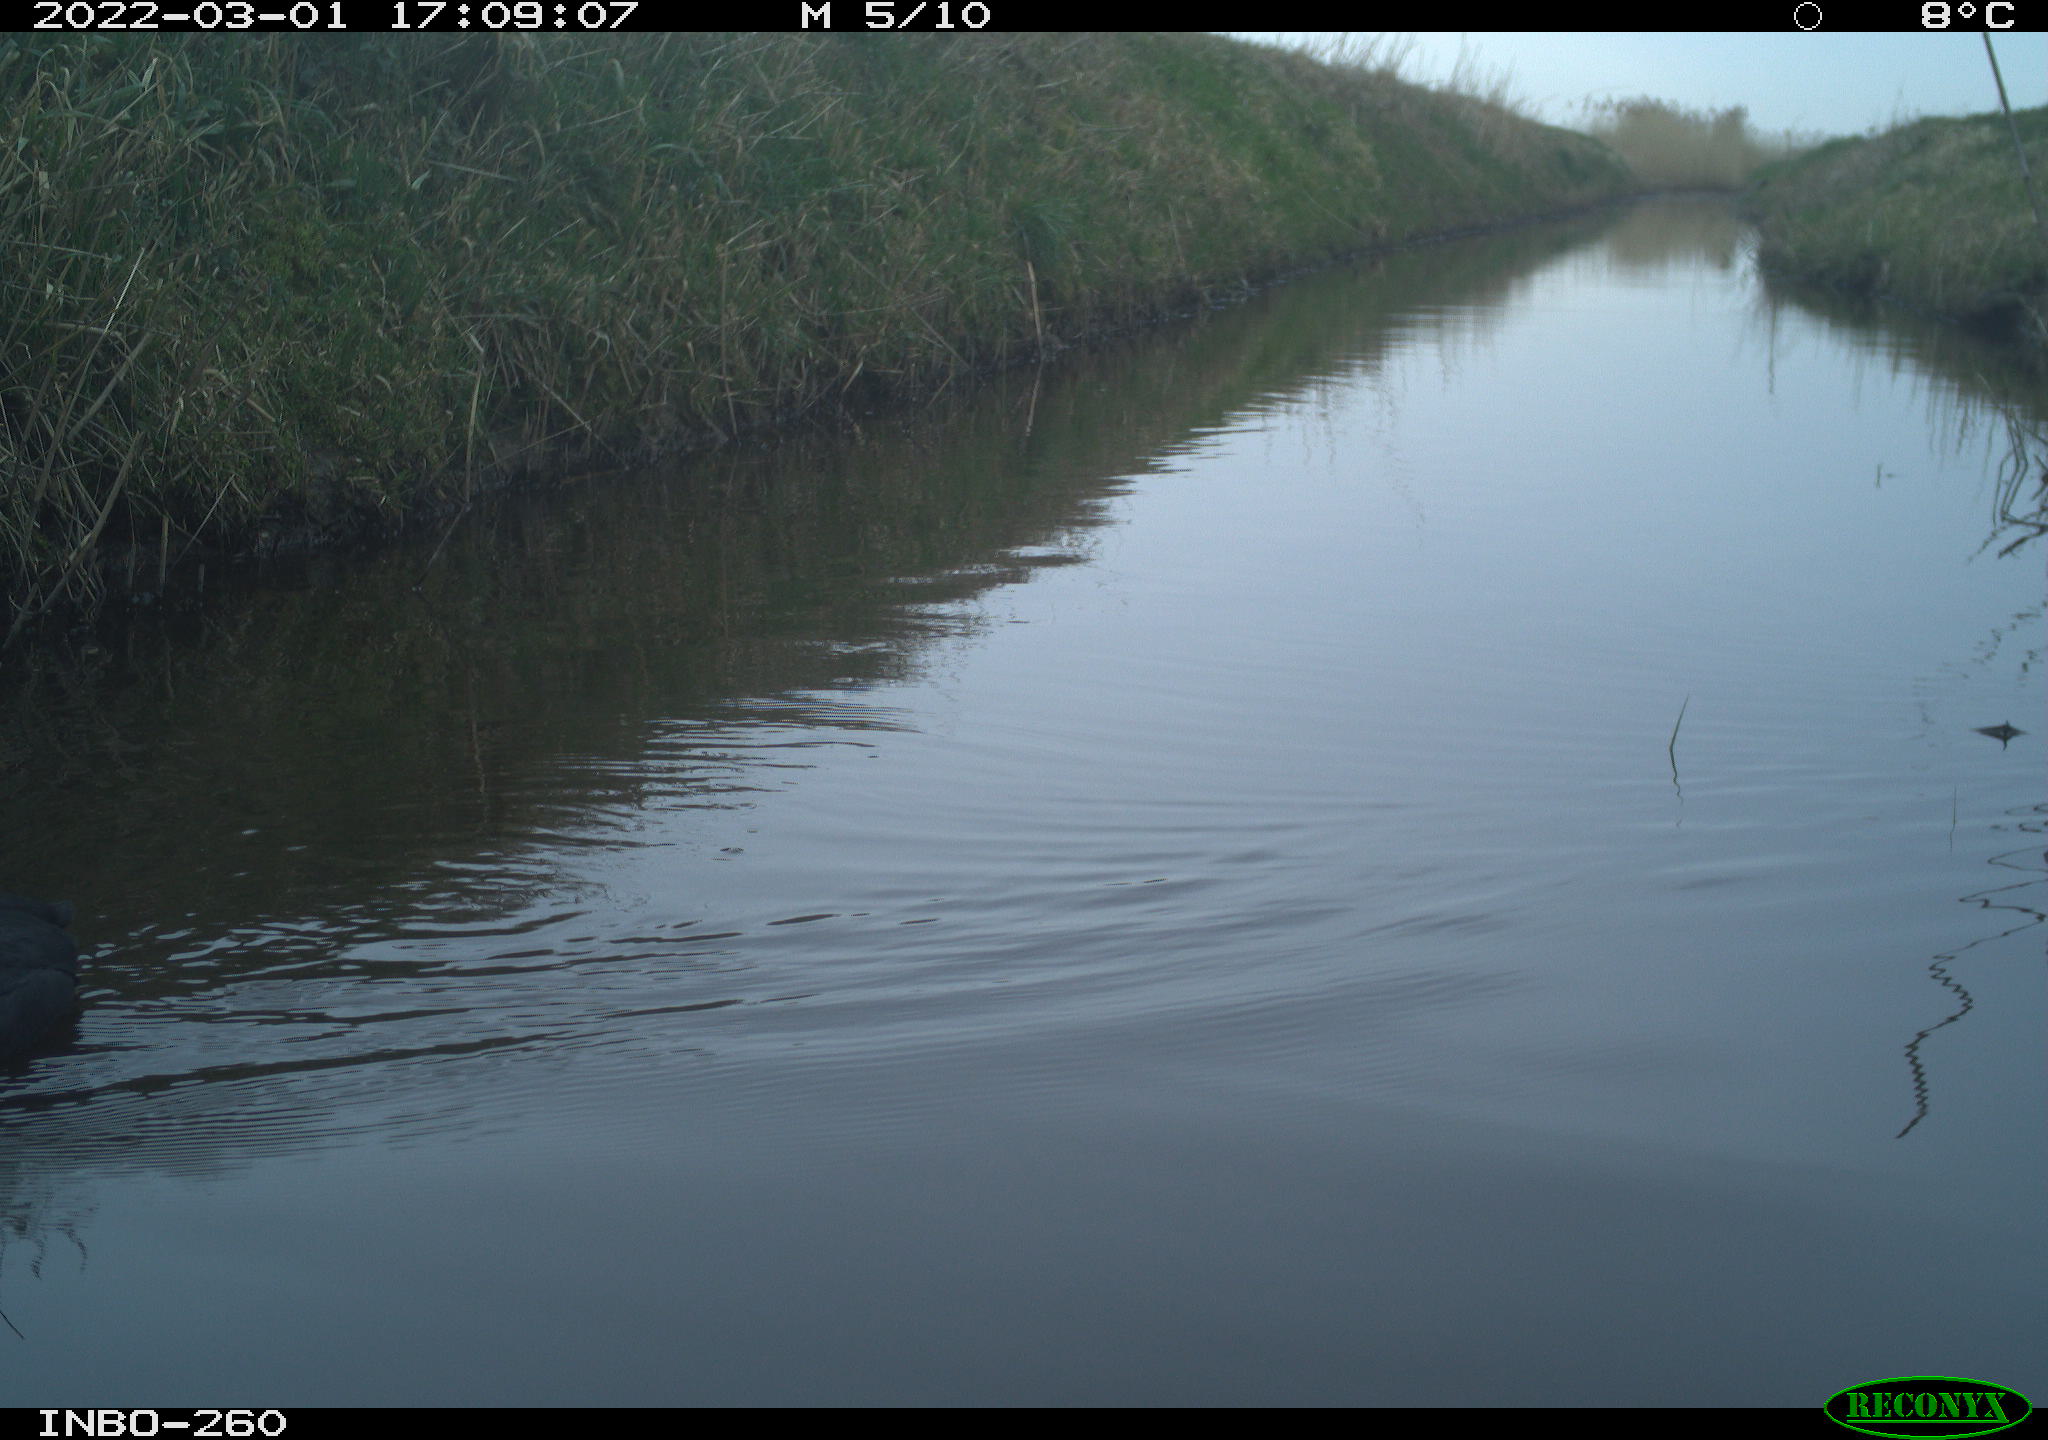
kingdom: Animalia
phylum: Chordata
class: Aves
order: Gruiformes
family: Rallidae
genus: Fulica
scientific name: Fulica atra
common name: Eurasian coot
